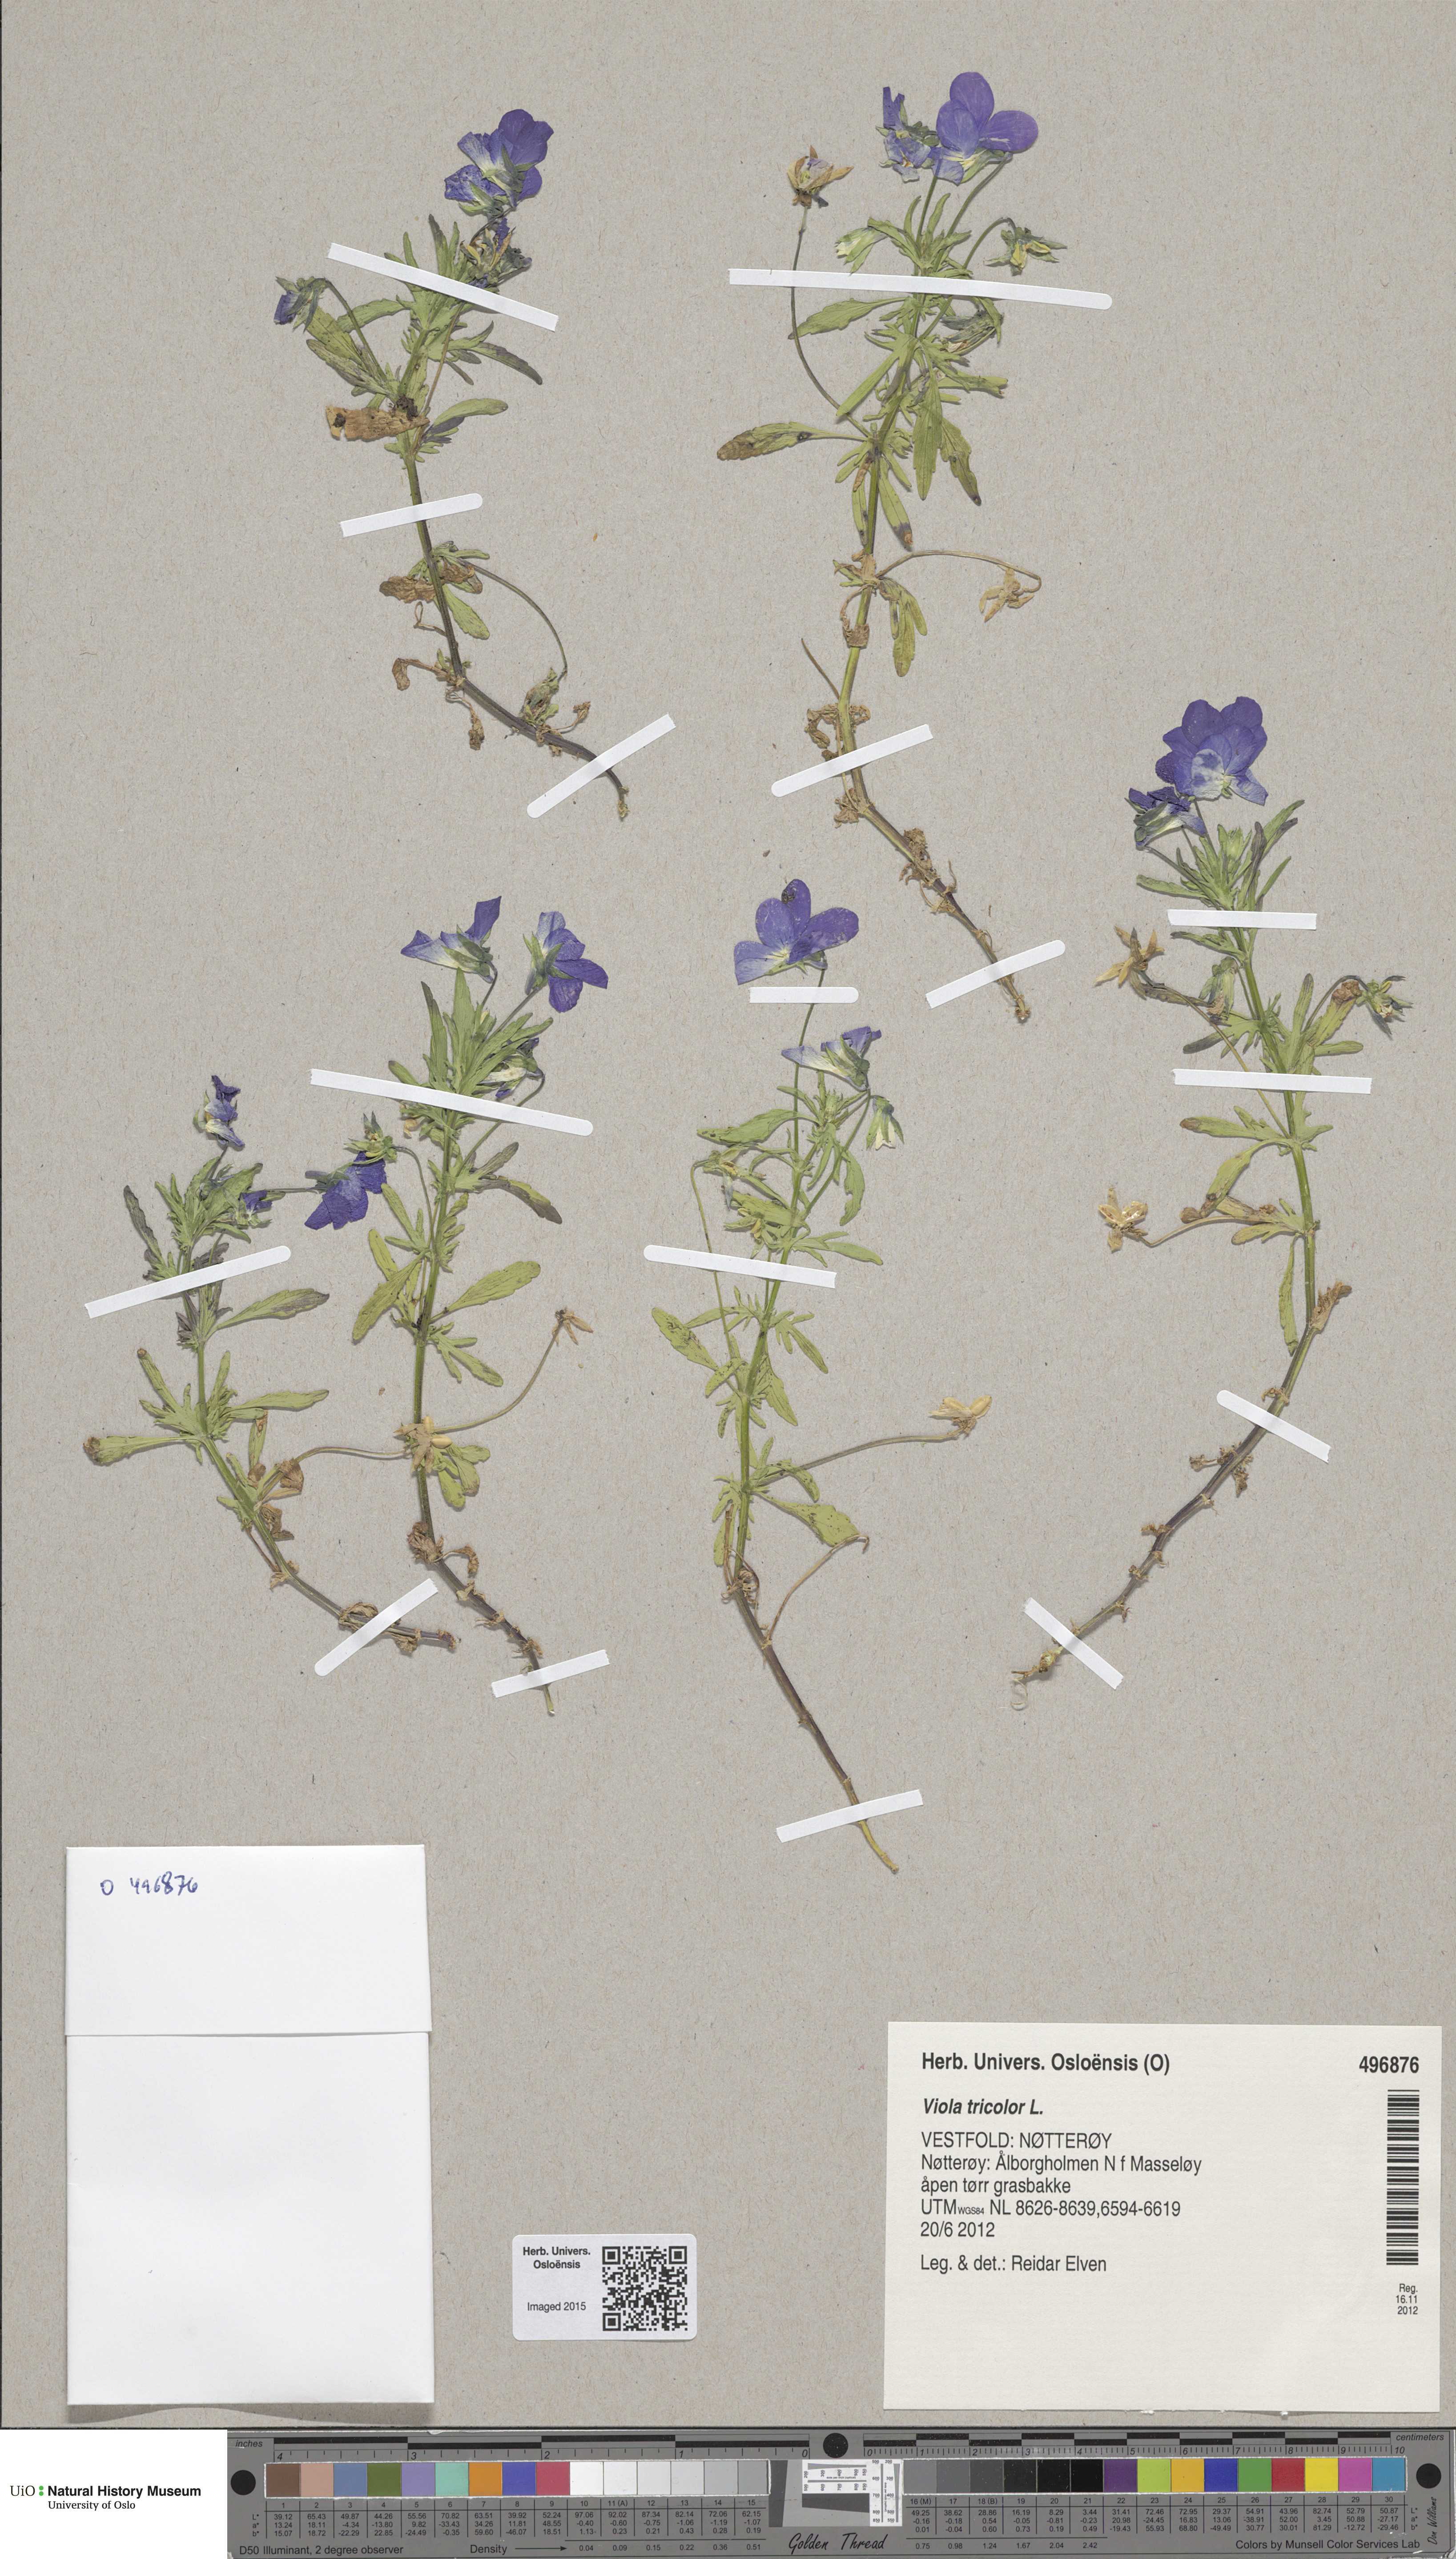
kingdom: Plantae
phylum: Tracheophyta
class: Magnoliopsida
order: Malpighiales
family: Violaceae
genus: Viola
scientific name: Viola tricolor
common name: Pansy
